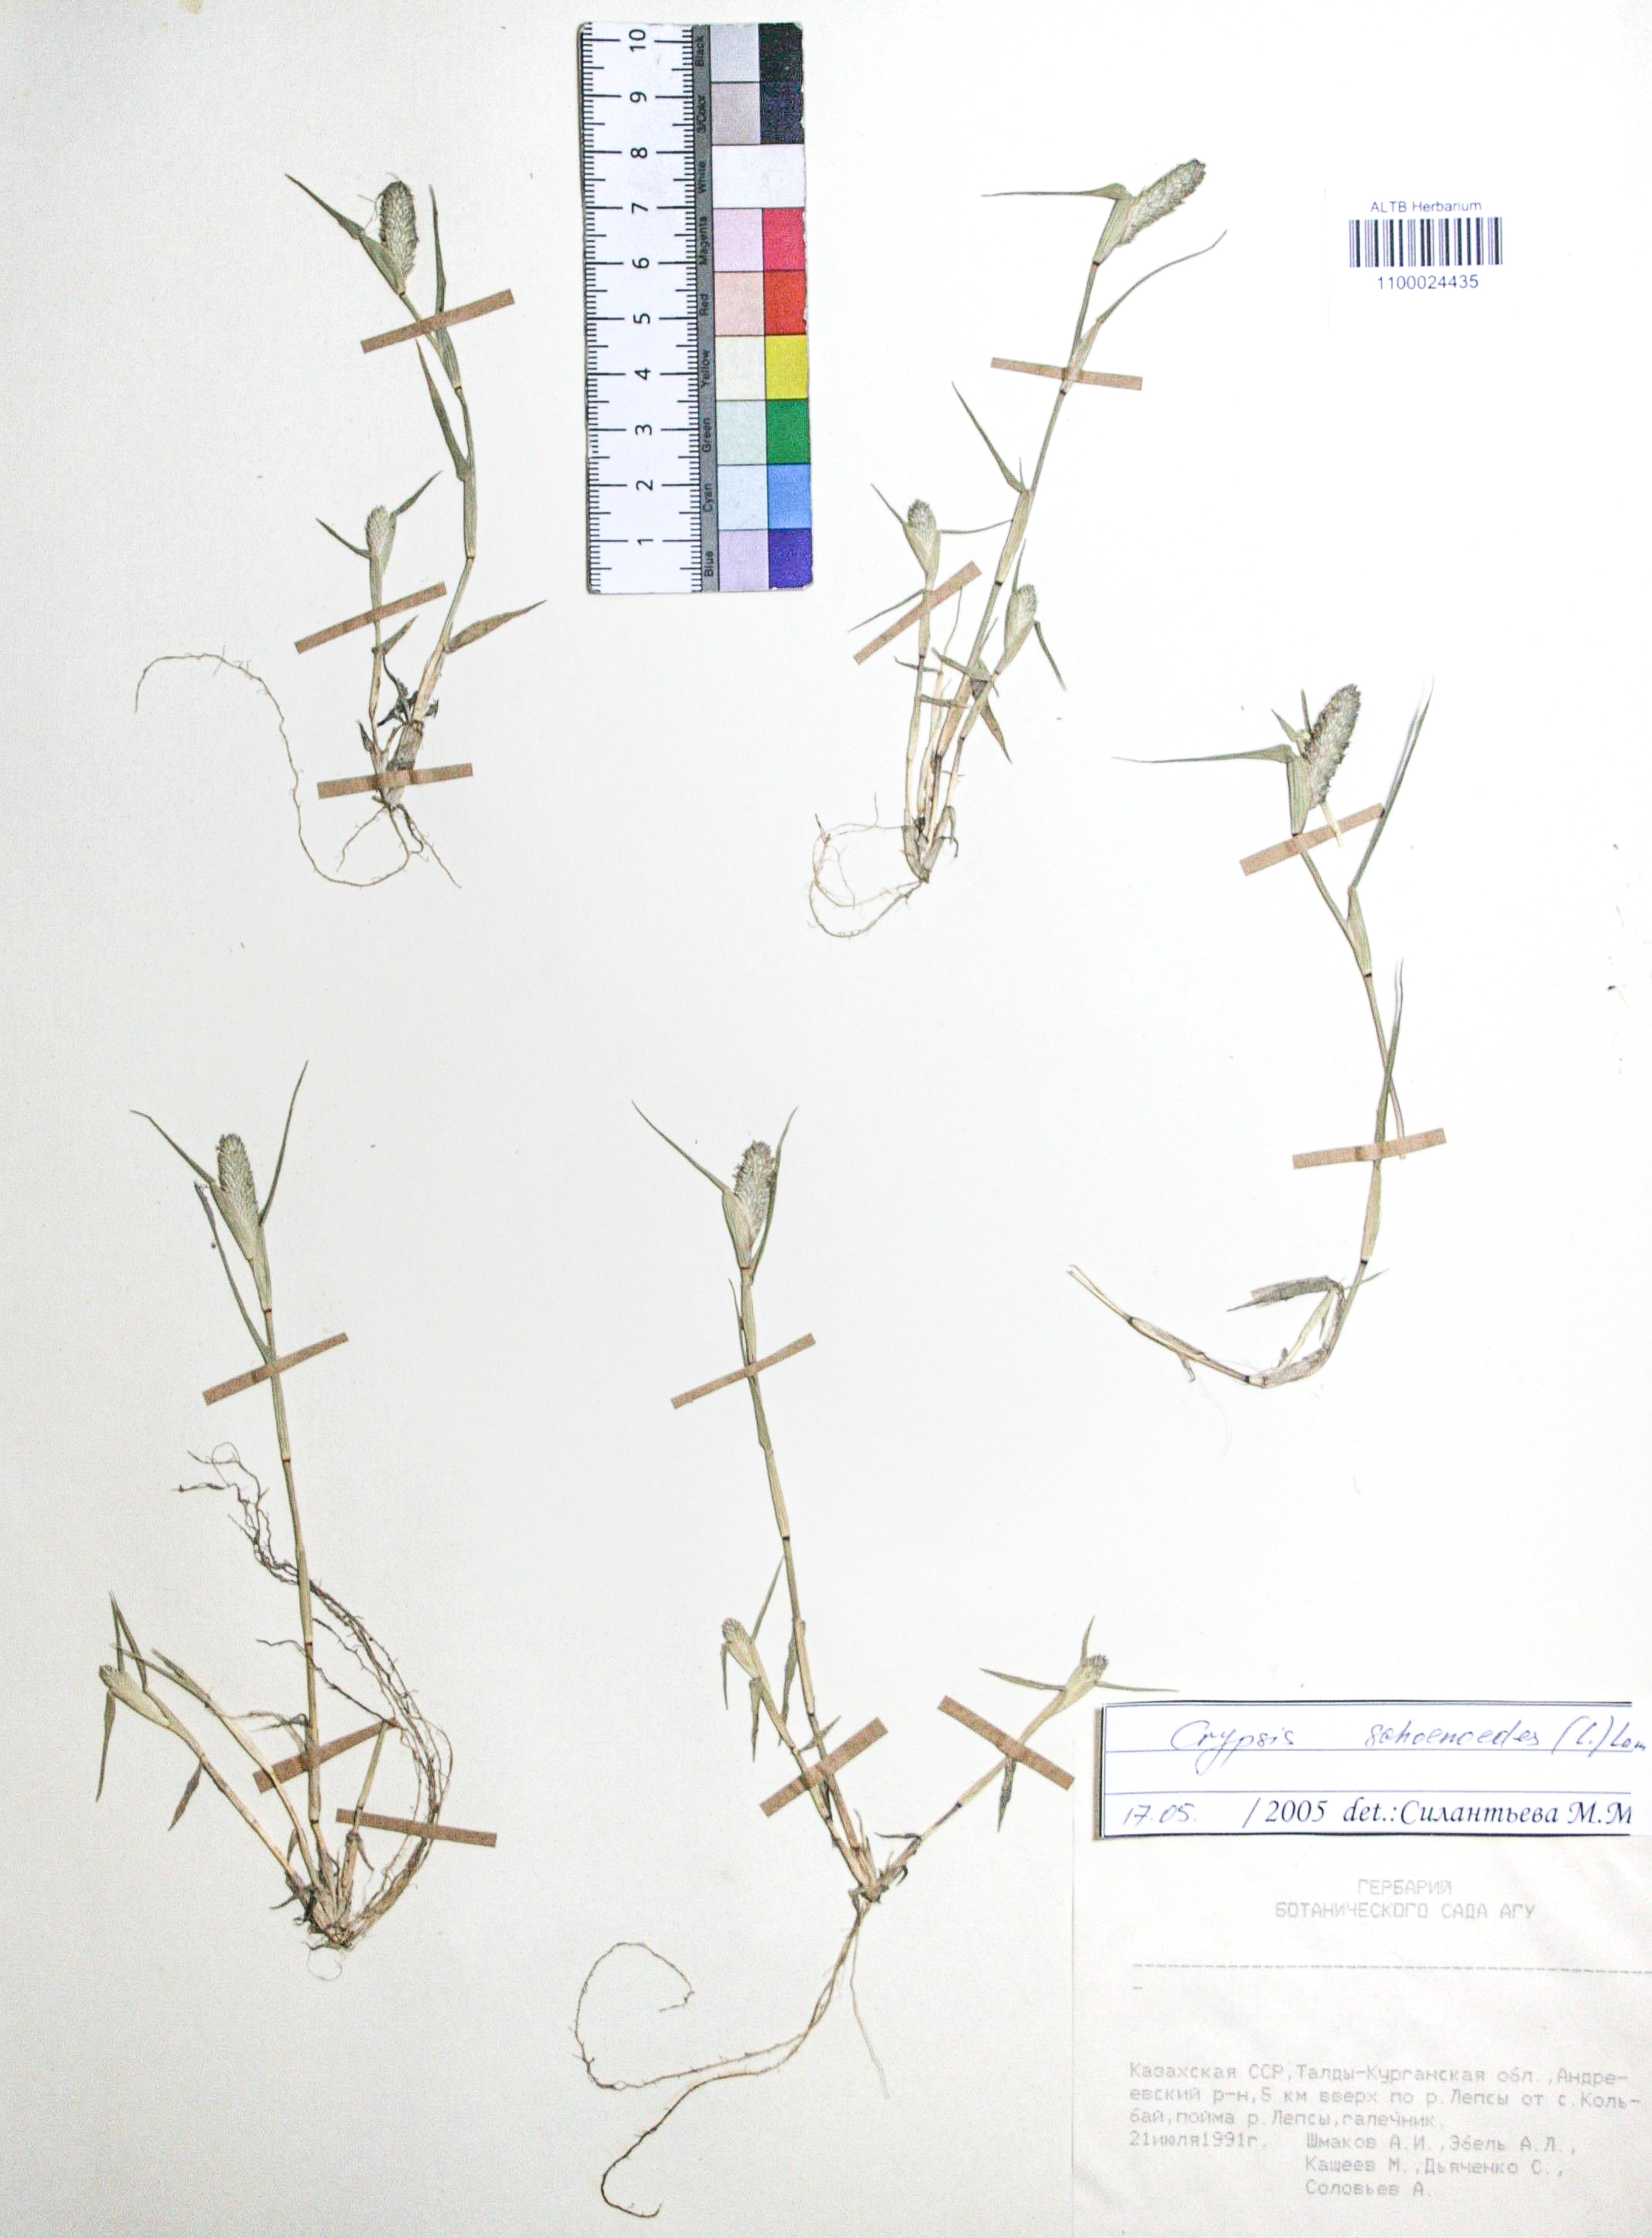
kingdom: Plantae
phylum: Tracheophyta
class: Liliopsida
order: Poales
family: Poaceae
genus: Sporobolus
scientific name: Sporobolus schoenoides
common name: Rush-like timothy
